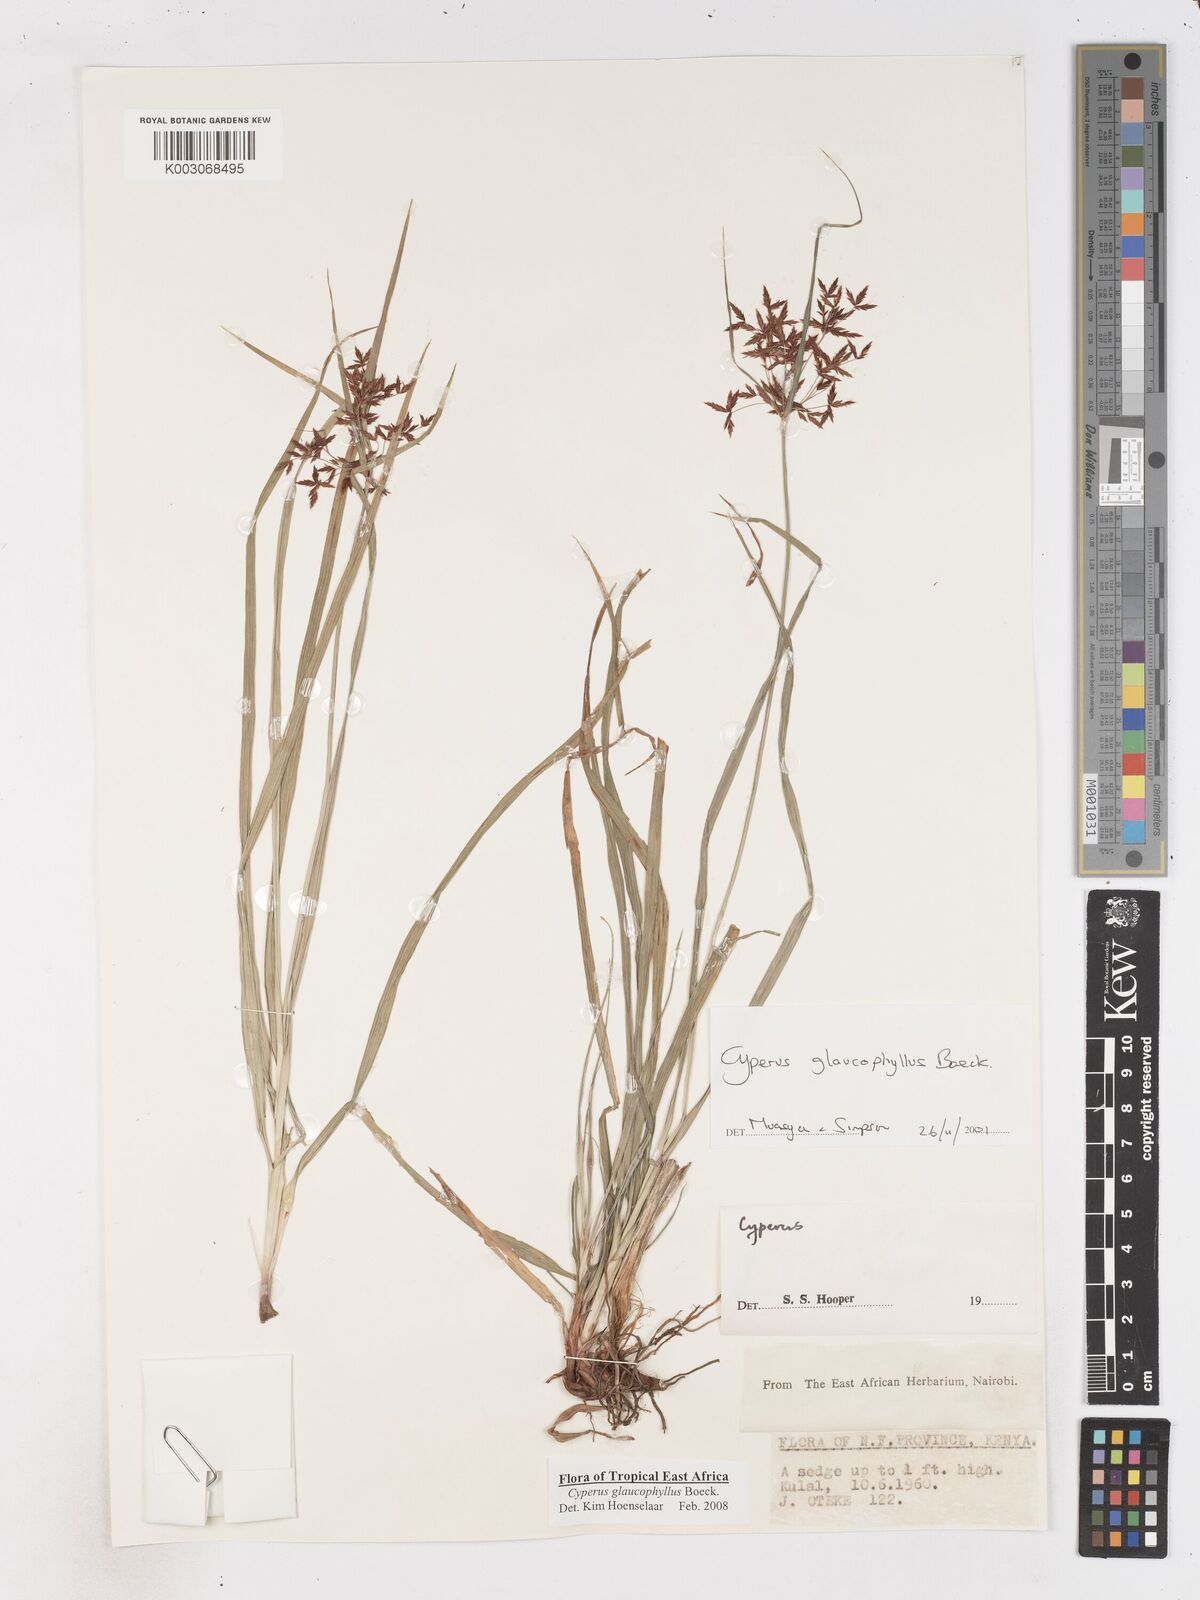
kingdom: Plantae
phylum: Tracheophyta
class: Liliopsida
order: Poales
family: Cyperaceae
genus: Cyperus
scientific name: Cyperus glaucophyllus
